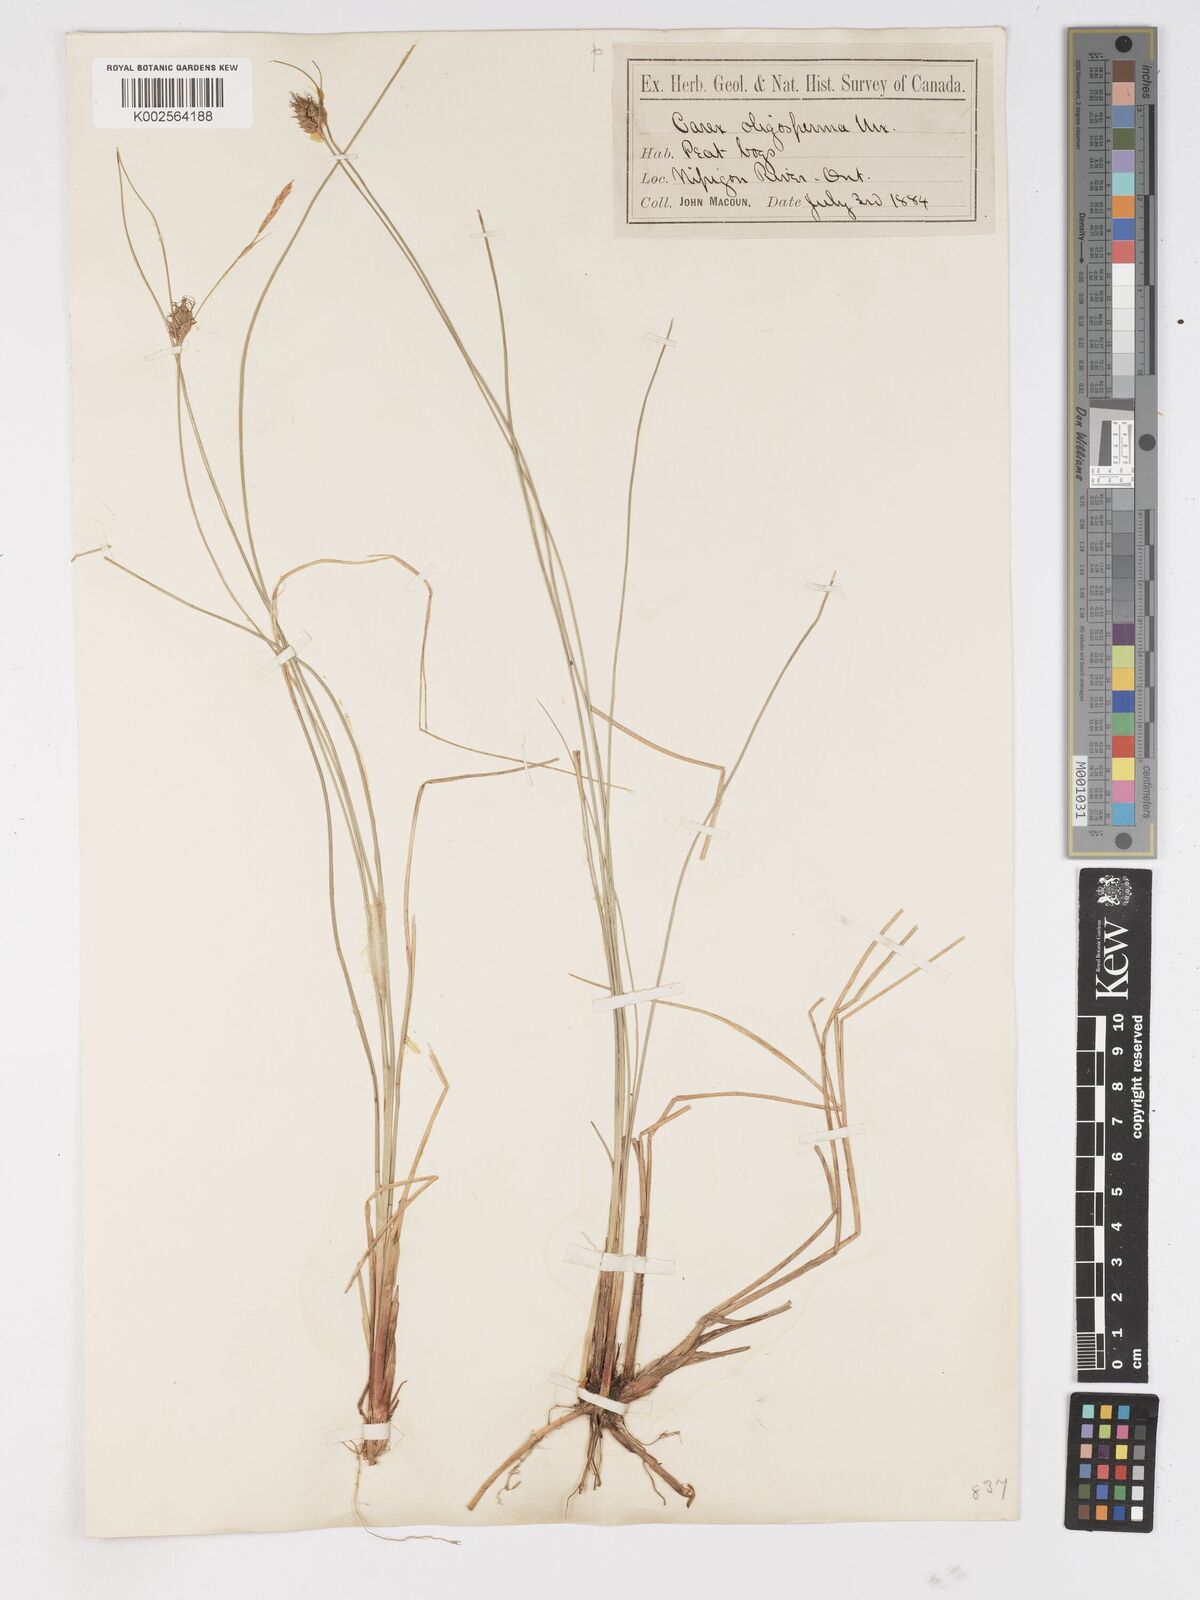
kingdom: Plantae
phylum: Tracheophyta
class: Liliopsida
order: Poales
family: Cyperaceae
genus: Carex
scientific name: Carex oligosperma
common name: Few-seed sedge
